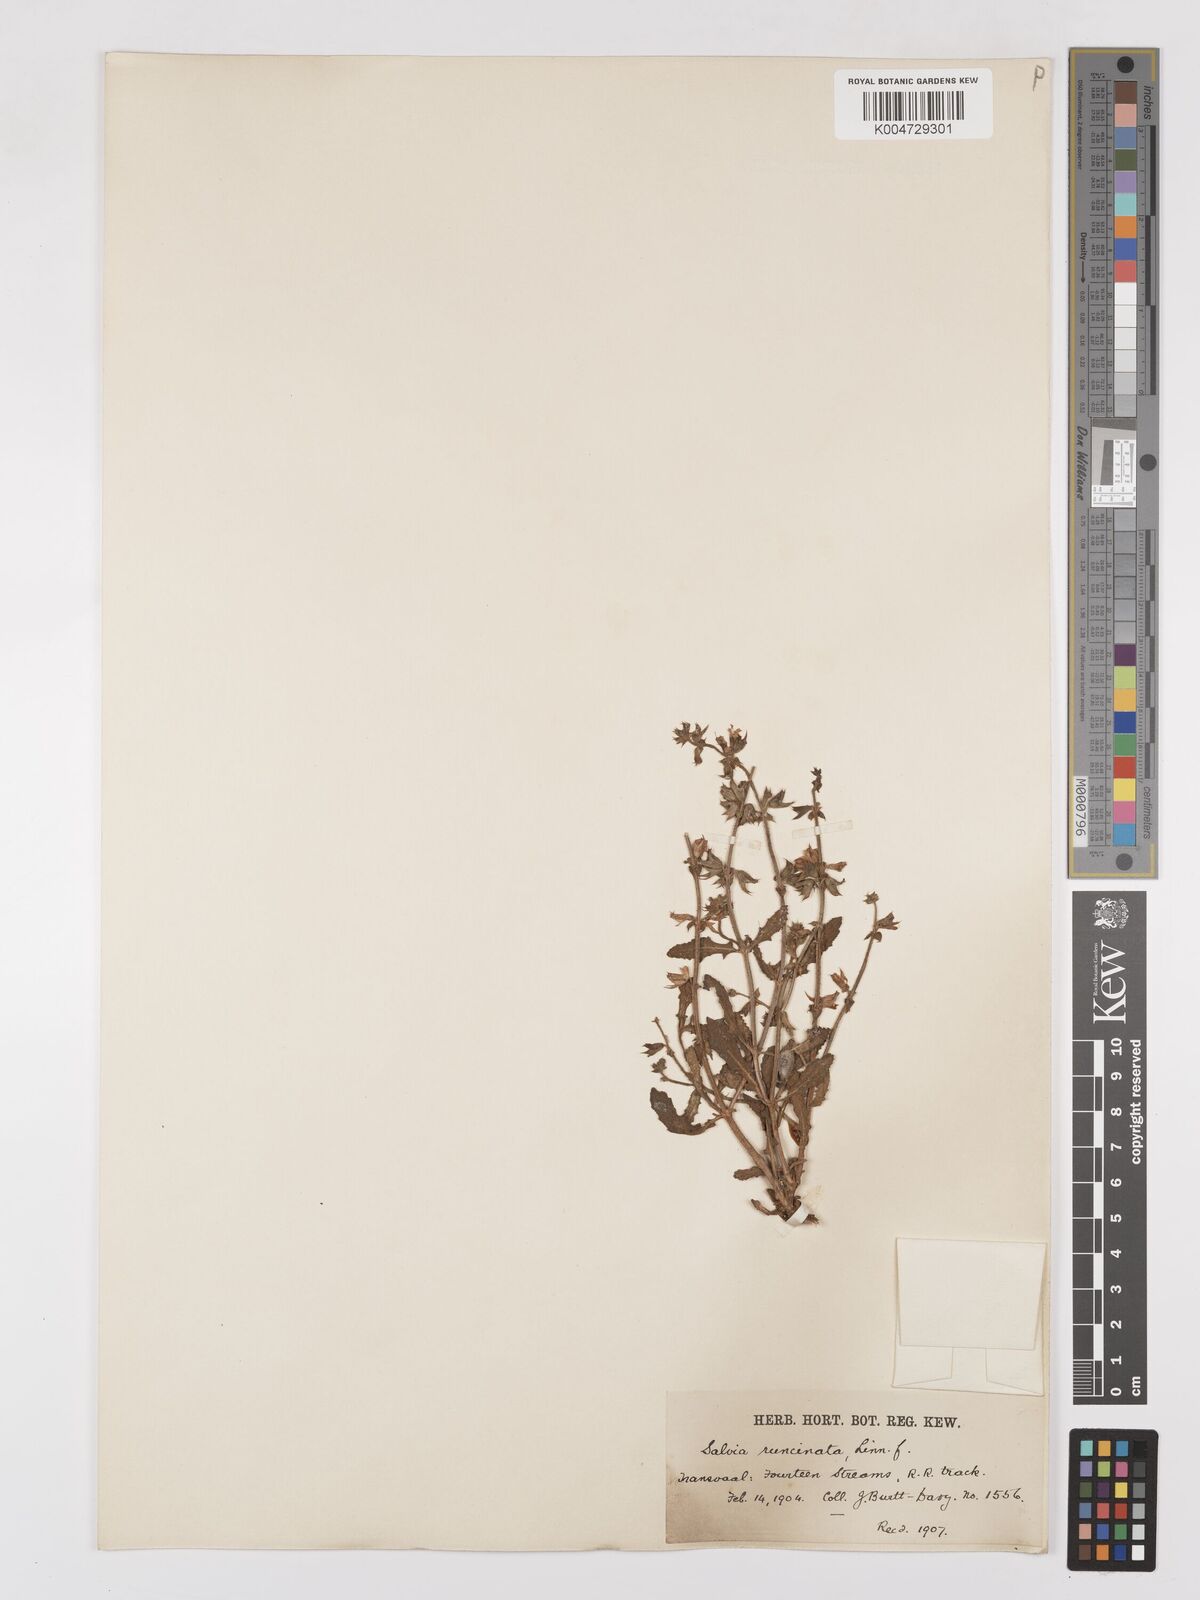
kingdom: Plantae
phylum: Tracheophyta
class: Magnoliopsida
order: Lamiales
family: Lamiaceae
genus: Salvia
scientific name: Salvia runcinata
